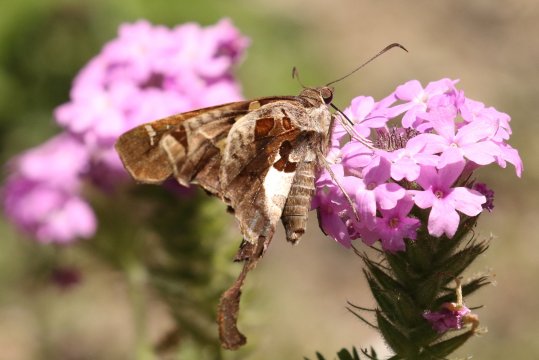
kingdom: Animalia
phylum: Arthropoda
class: Insecta
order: Lepidoptera
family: Hesperiidae
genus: Chioides
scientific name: Chioides zilpa
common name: Zilpa Longtail
